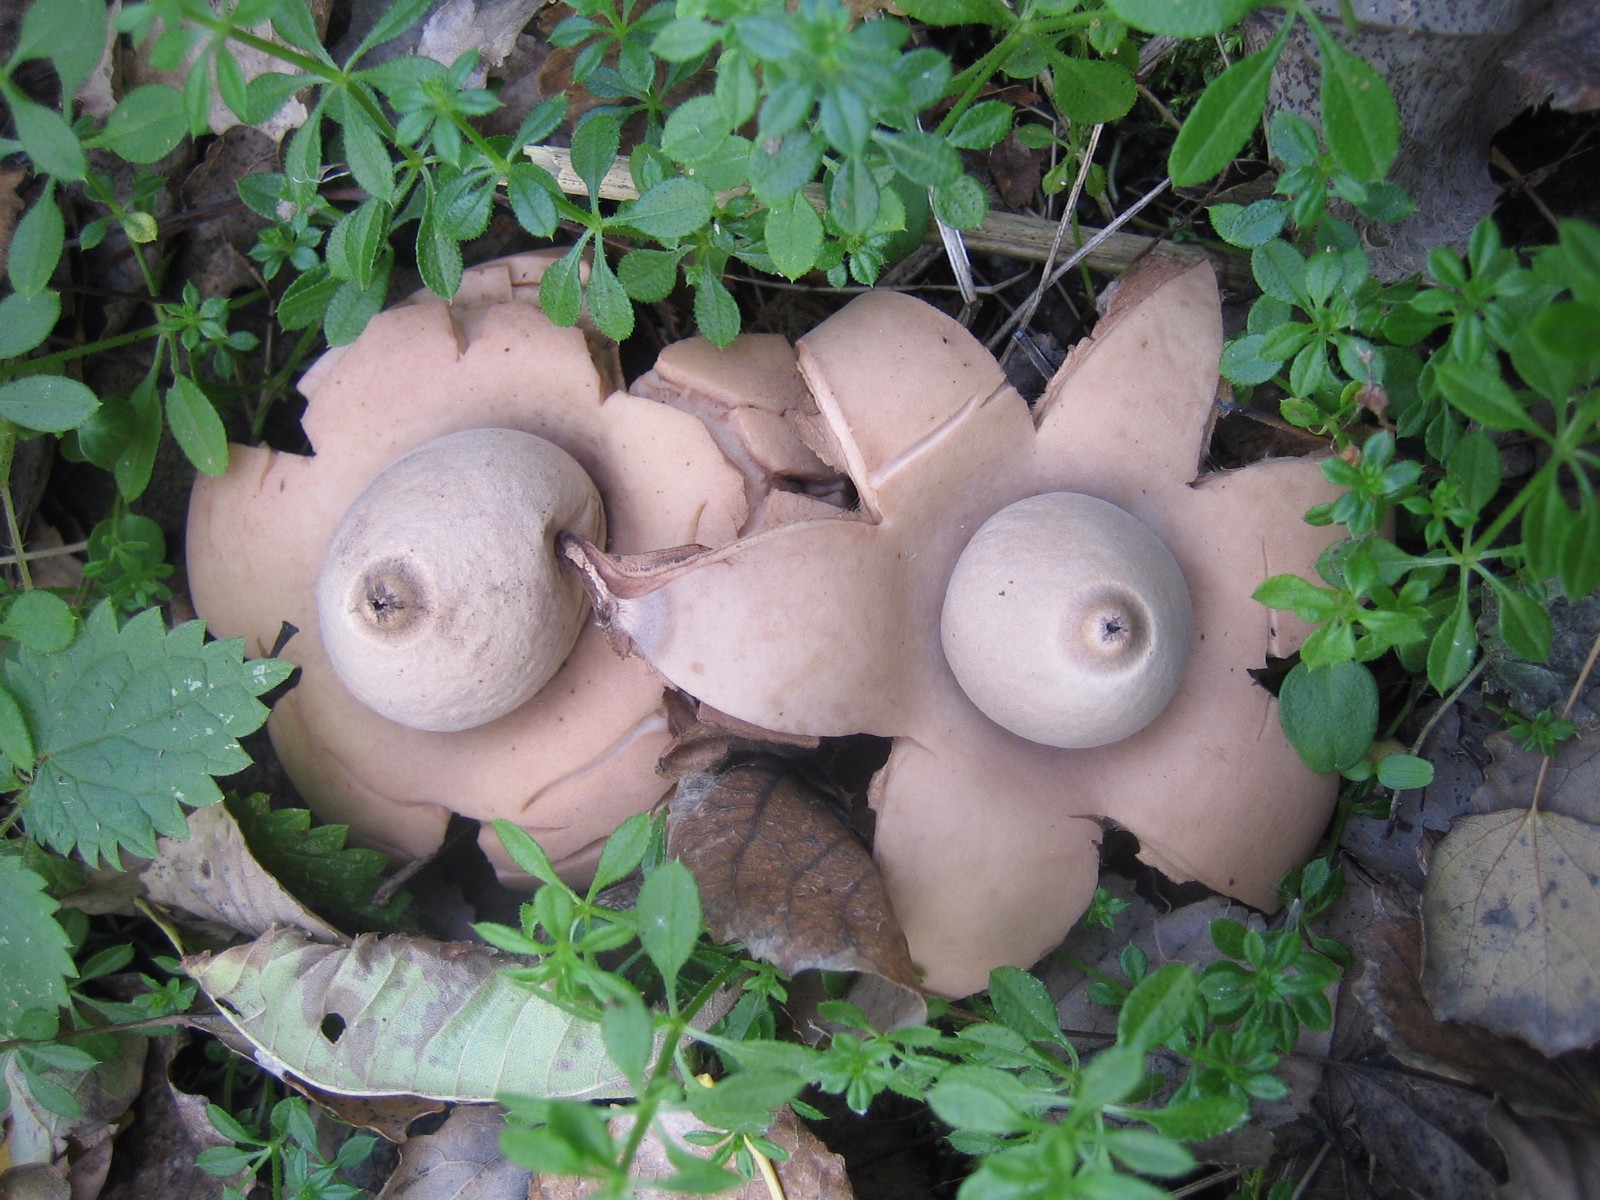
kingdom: Fungi
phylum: Basidiomycota
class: Agaricomycetes
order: Geastrales
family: Geastraceae
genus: Geastrum
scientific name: Geastrum michelianum
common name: kødet stjernebold
